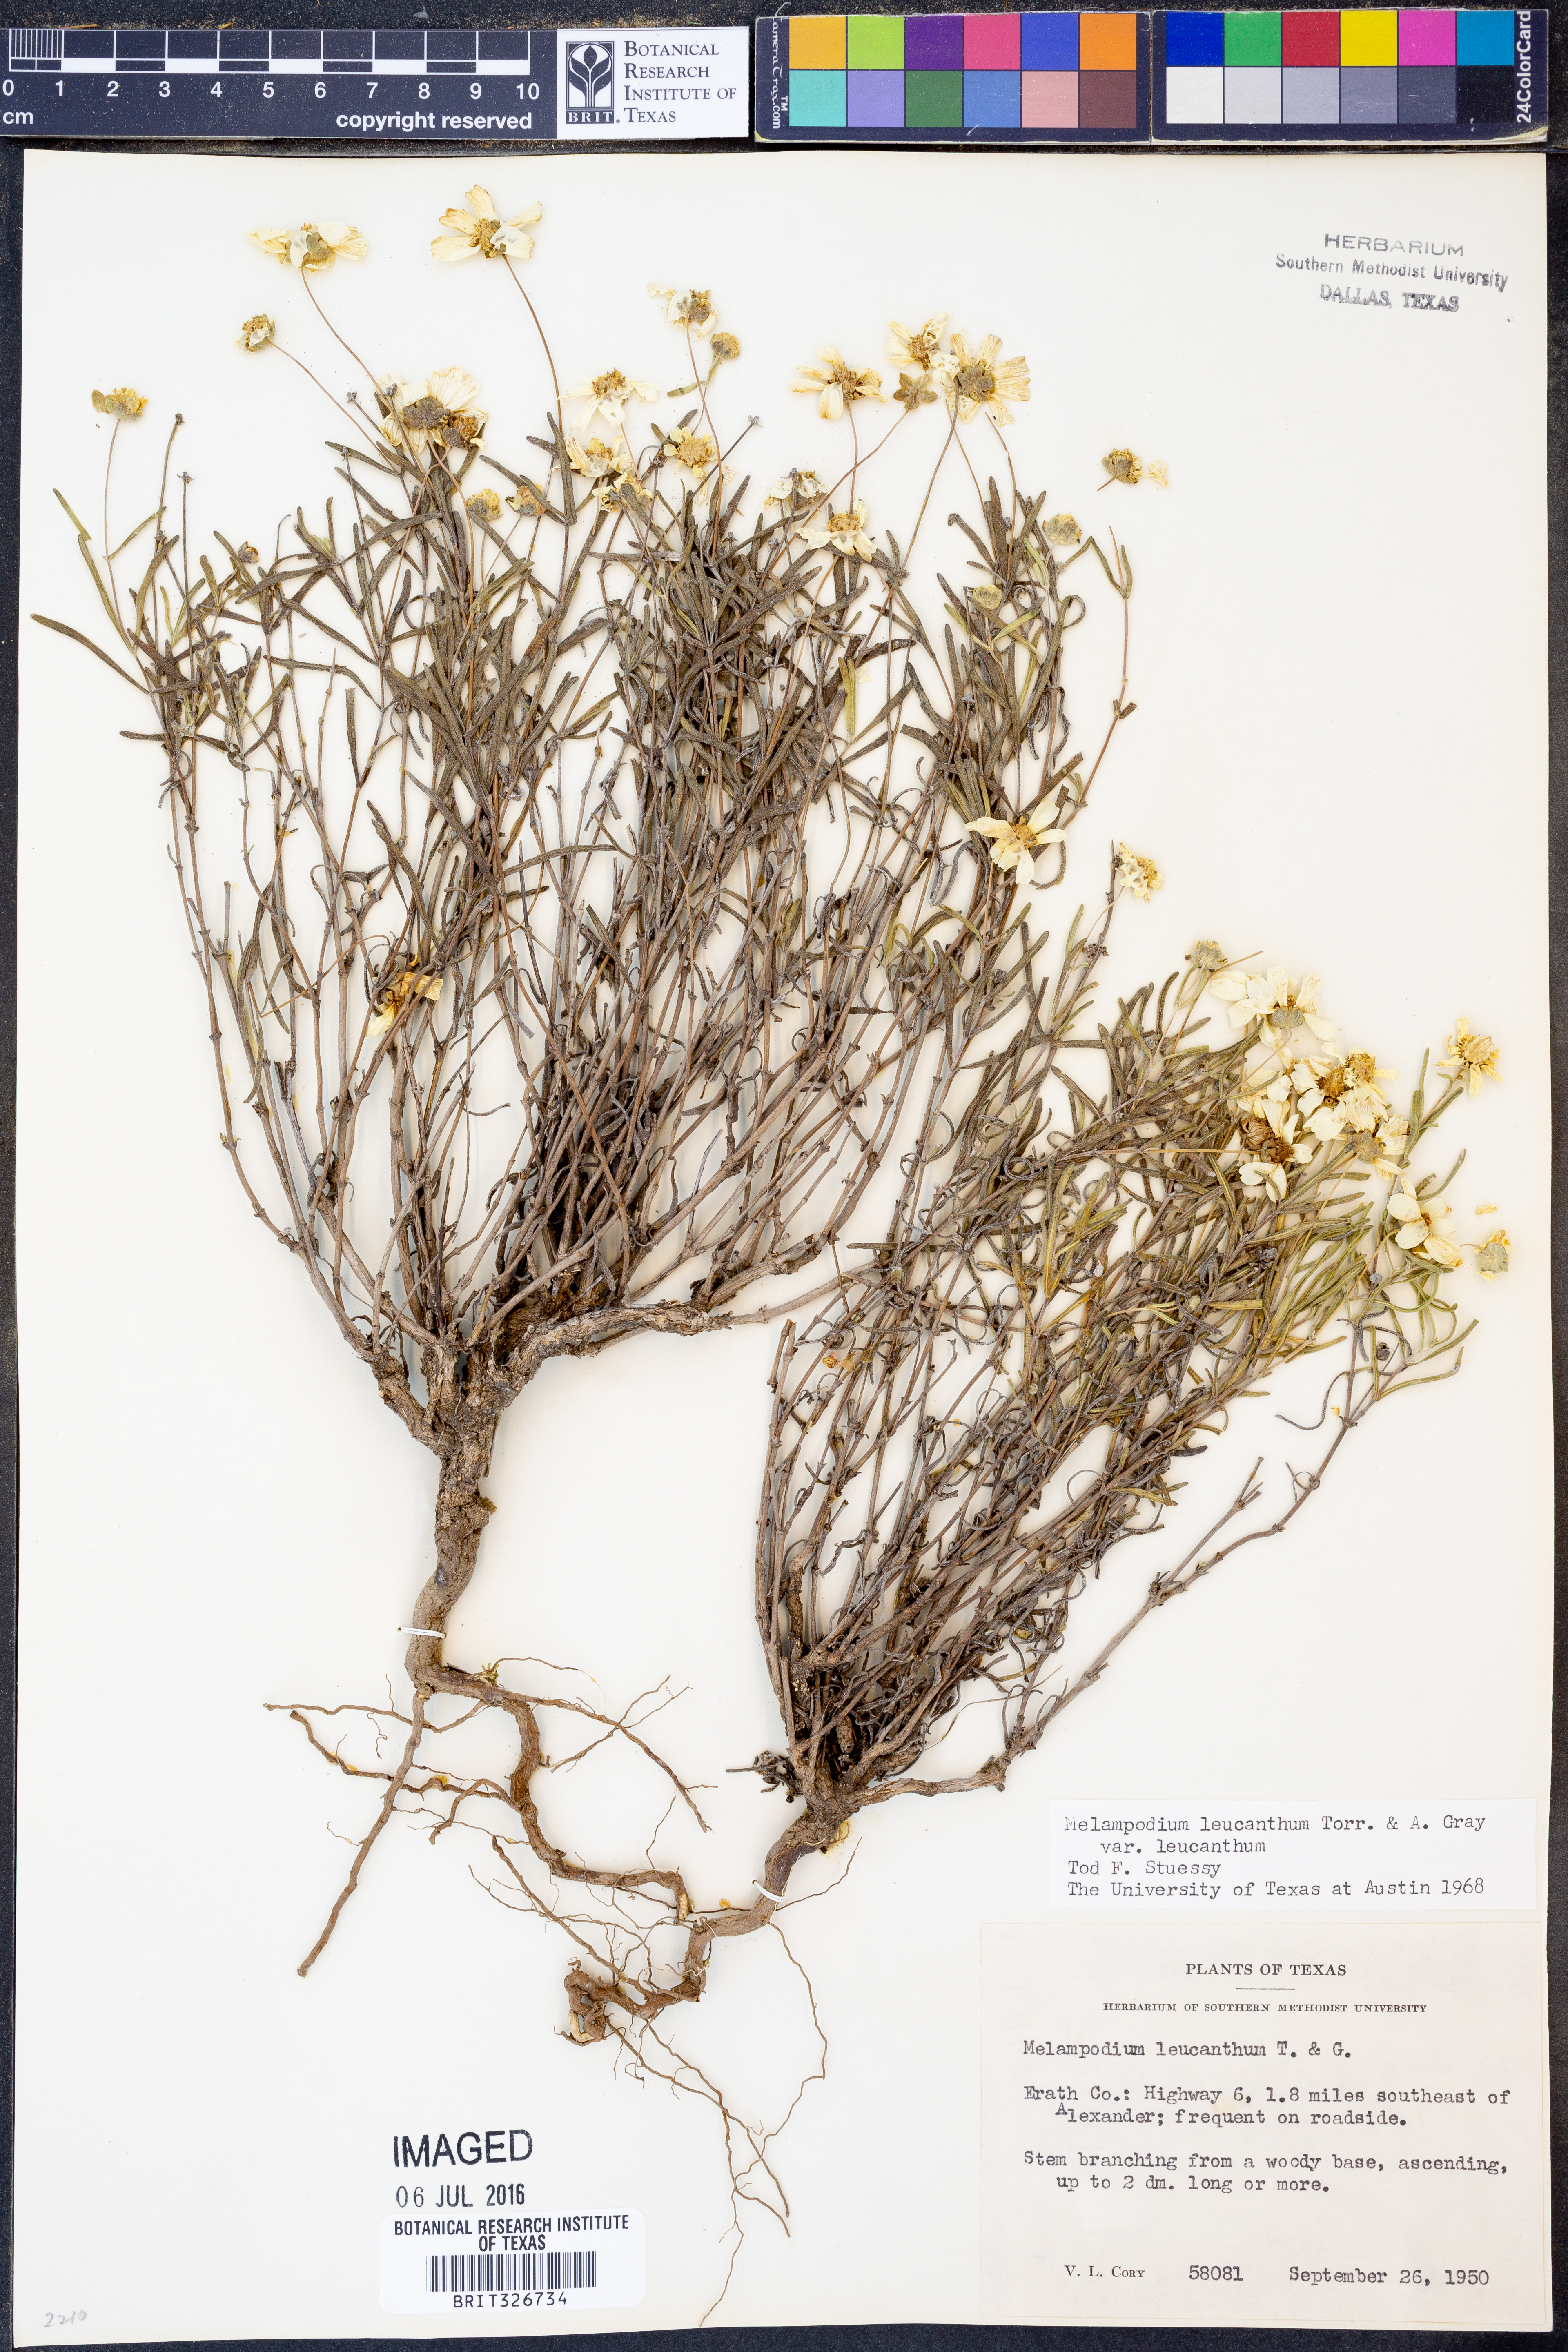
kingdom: Plantae
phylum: Tracheophyta
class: Magnoliopsida
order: Asterales
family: Asteraceae
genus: Melampodium
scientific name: Melampodium leucanthum
